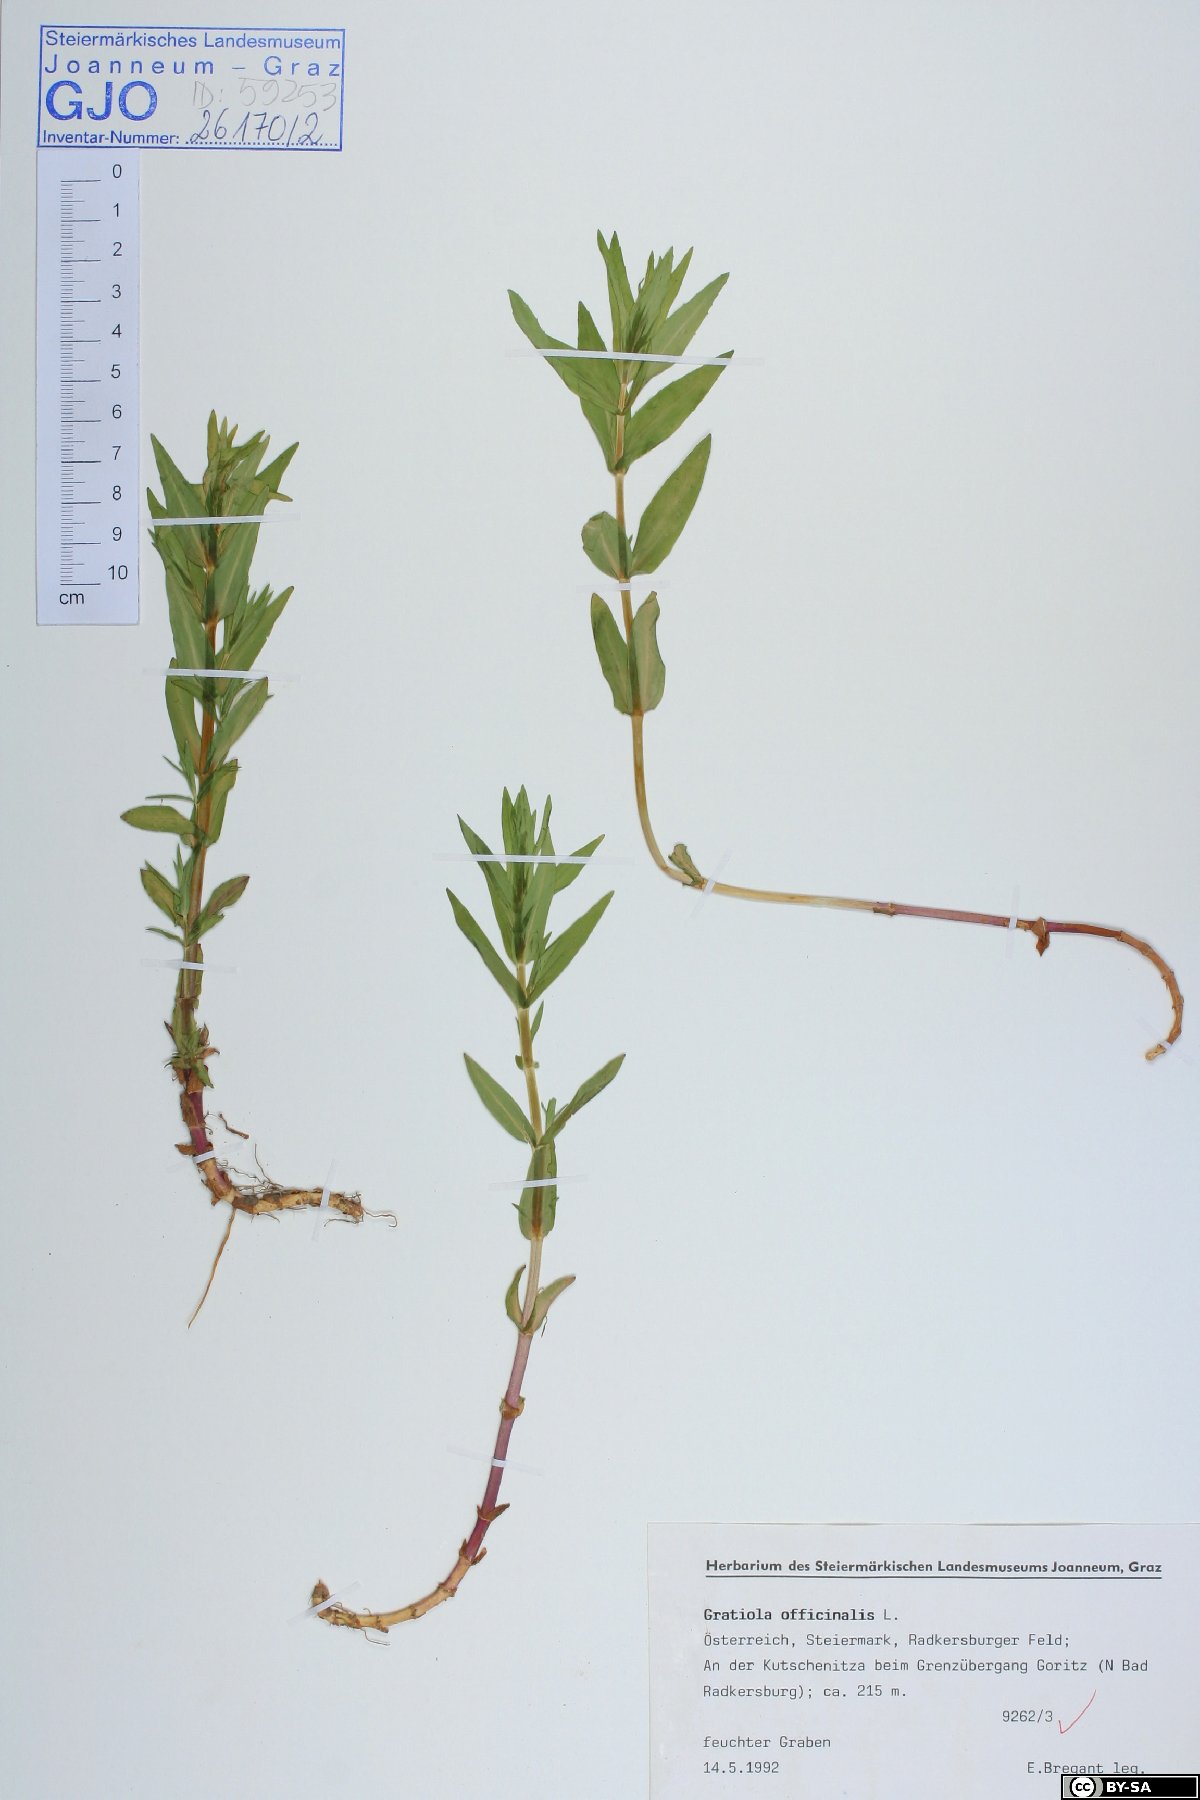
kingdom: Plantae
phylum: Tracheophyta
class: Magnoliopsida
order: Lamiales
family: Plantaginaceae
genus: Gratiola
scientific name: Gratiola officinalis
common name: Gratiola
